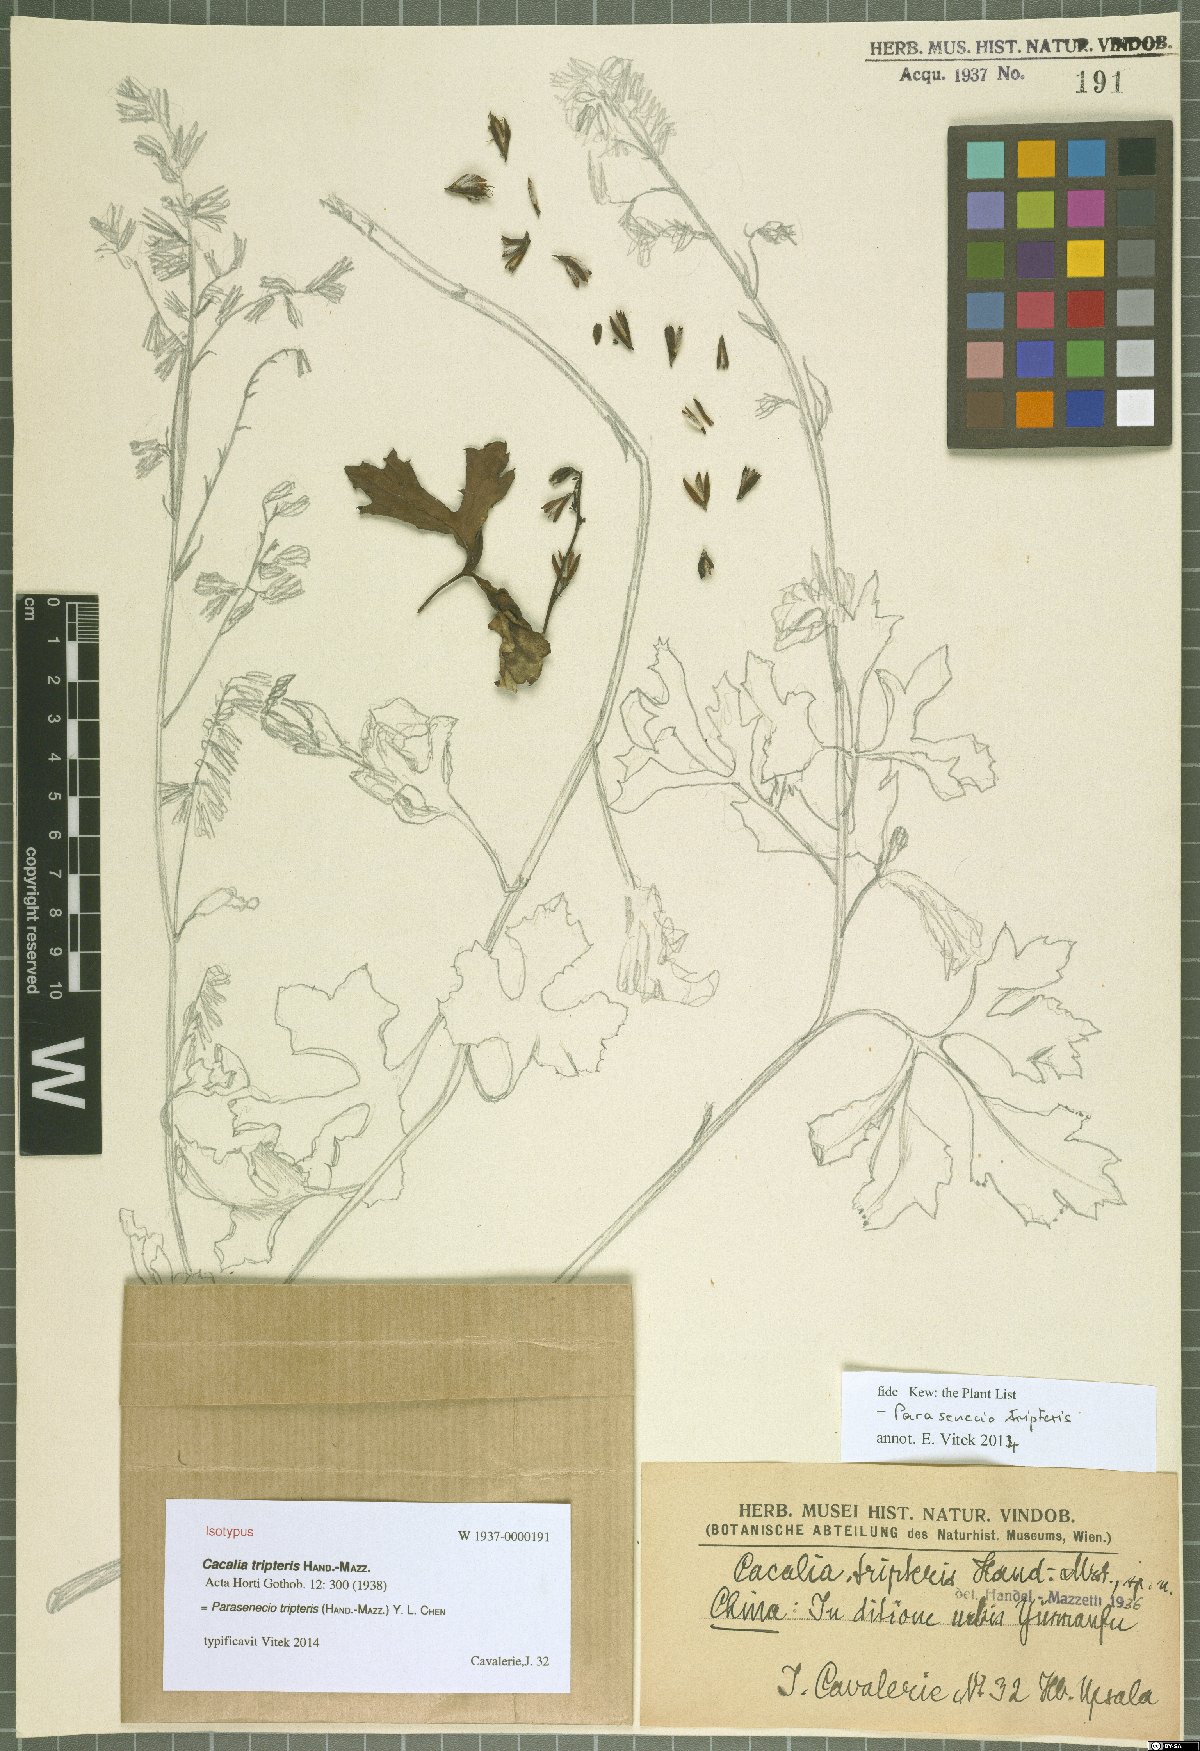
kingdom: Plantae
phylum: Tracheophyta
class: Magnoliopsida
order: Asterales
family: Asteraceae
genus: Parasenecio
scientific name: Parasenecio tripteris
